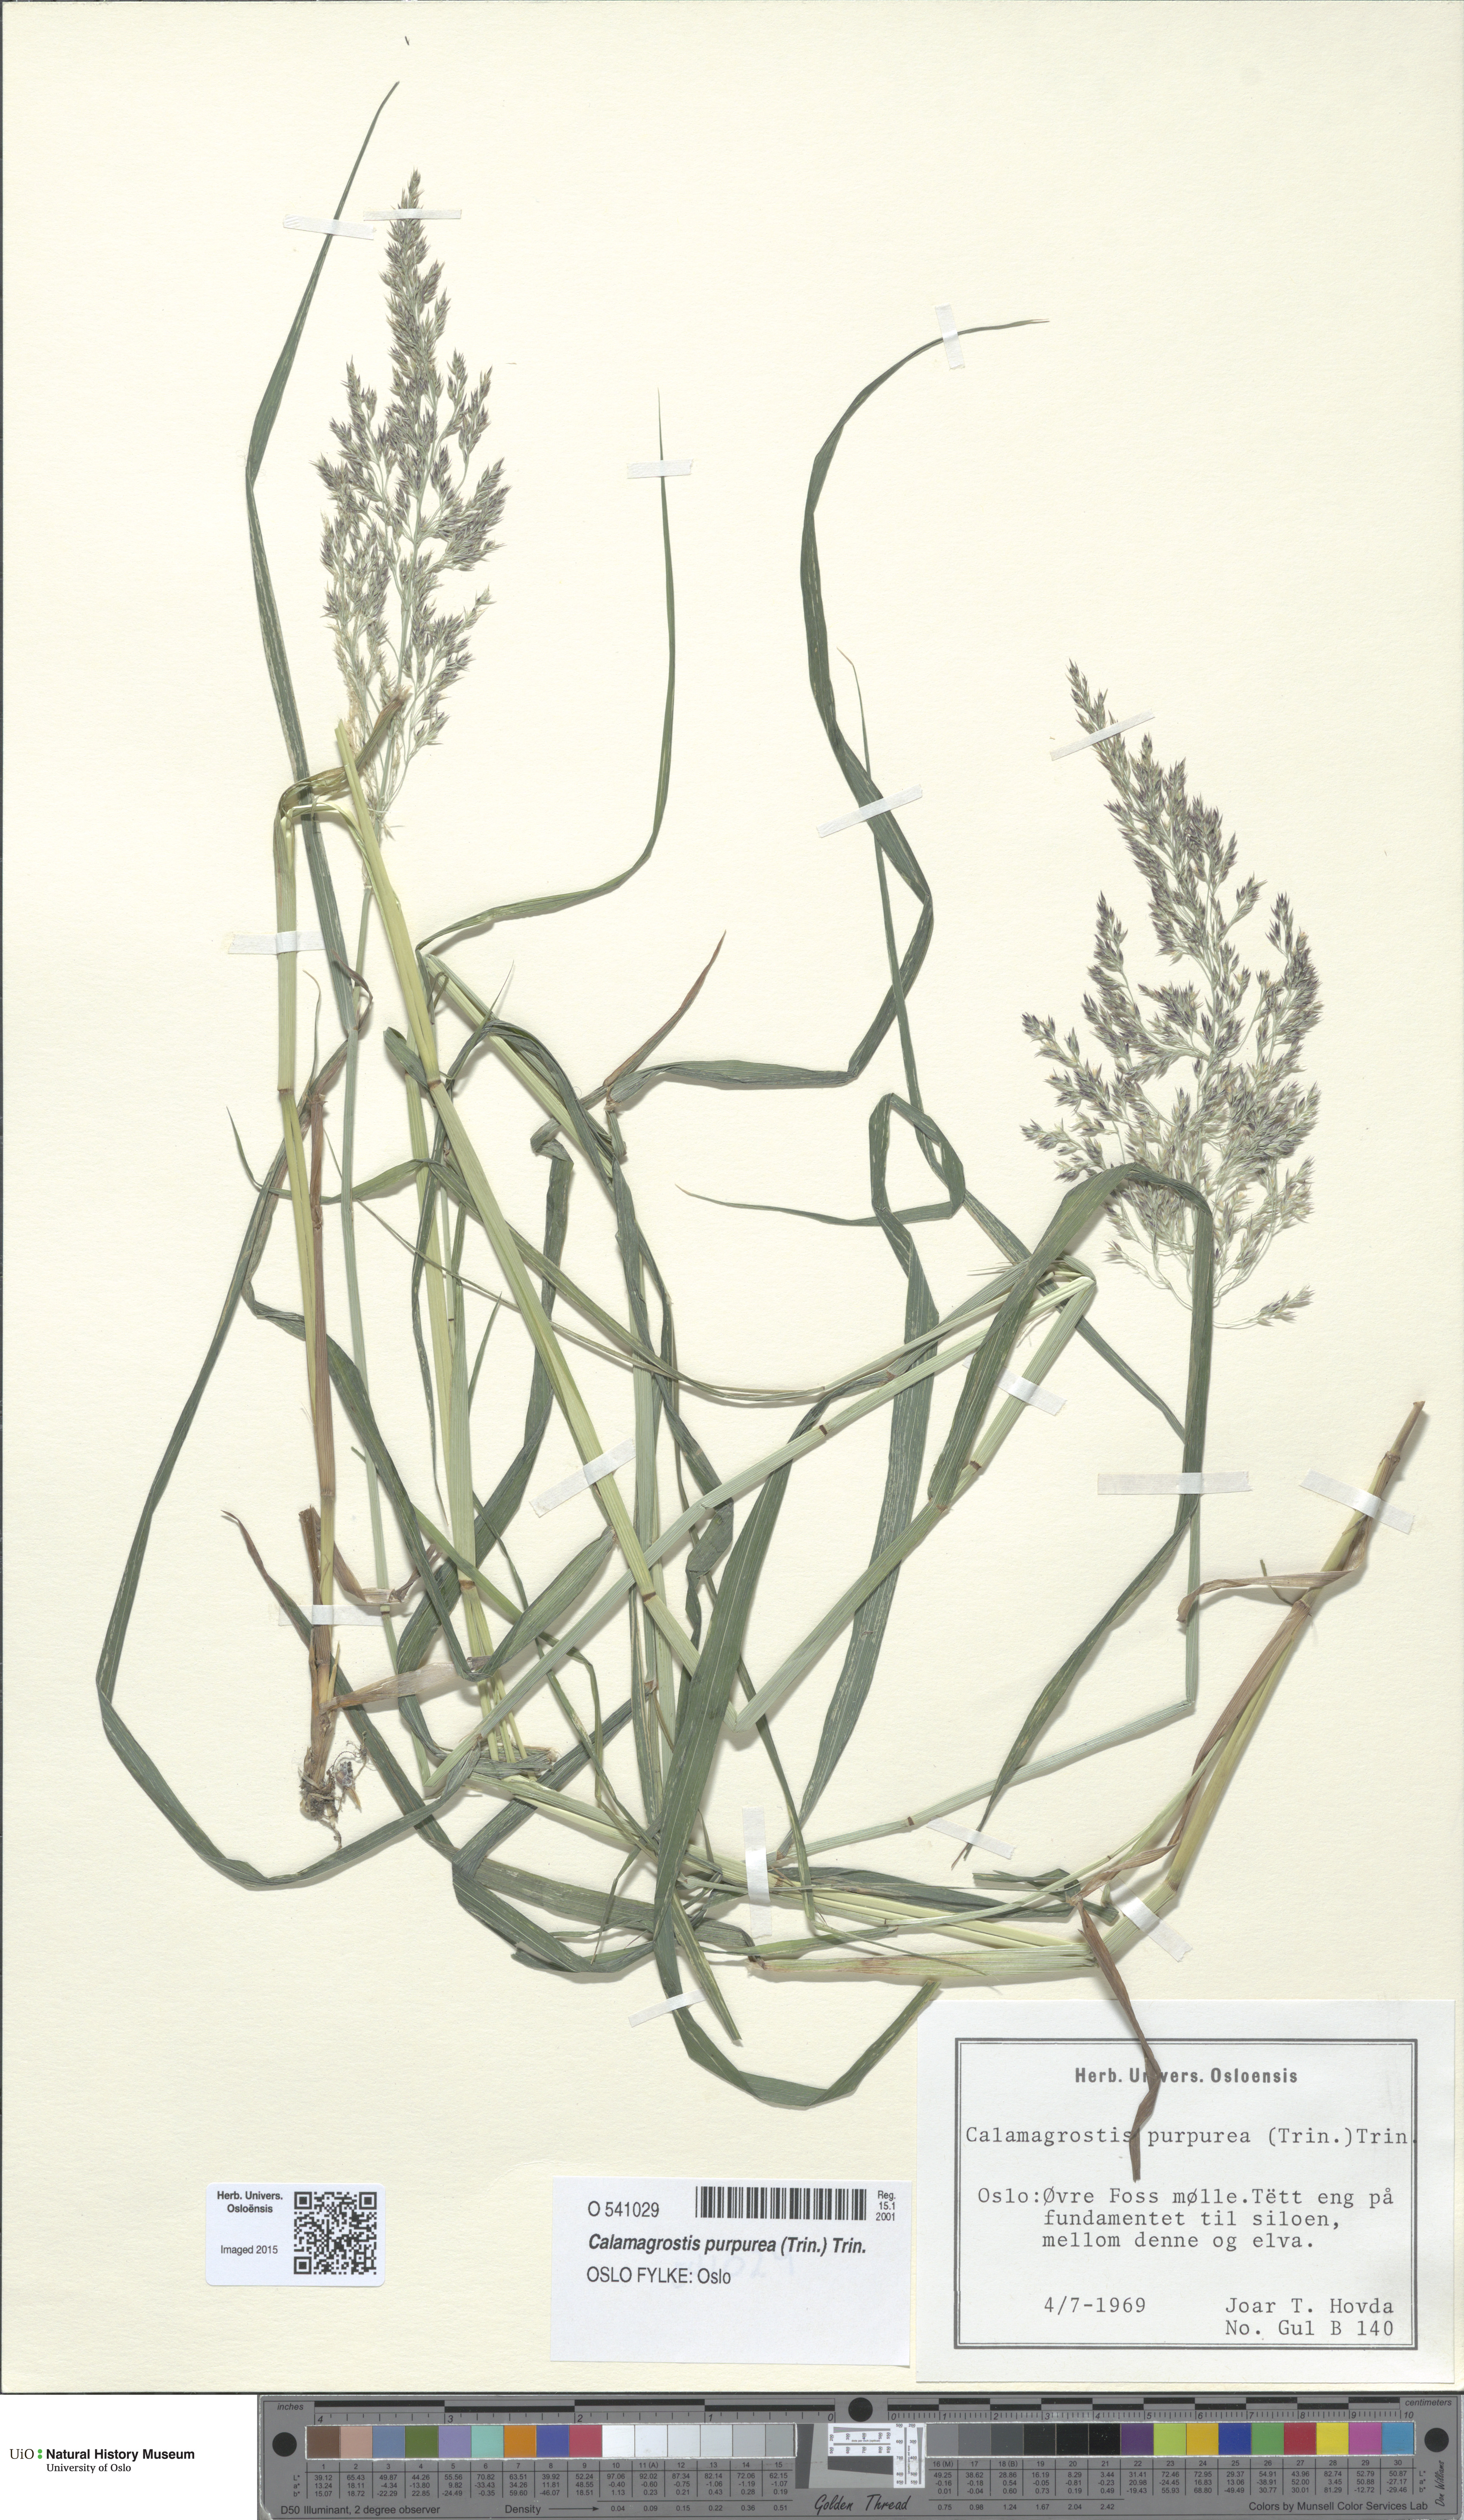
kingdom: Plantae
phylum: Tracheophyta
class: Liliopsida
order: Poales
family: Poaceae
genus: Calamagrostis
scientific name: Calamagrostis purpurea
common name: Scandinavian small-reed
